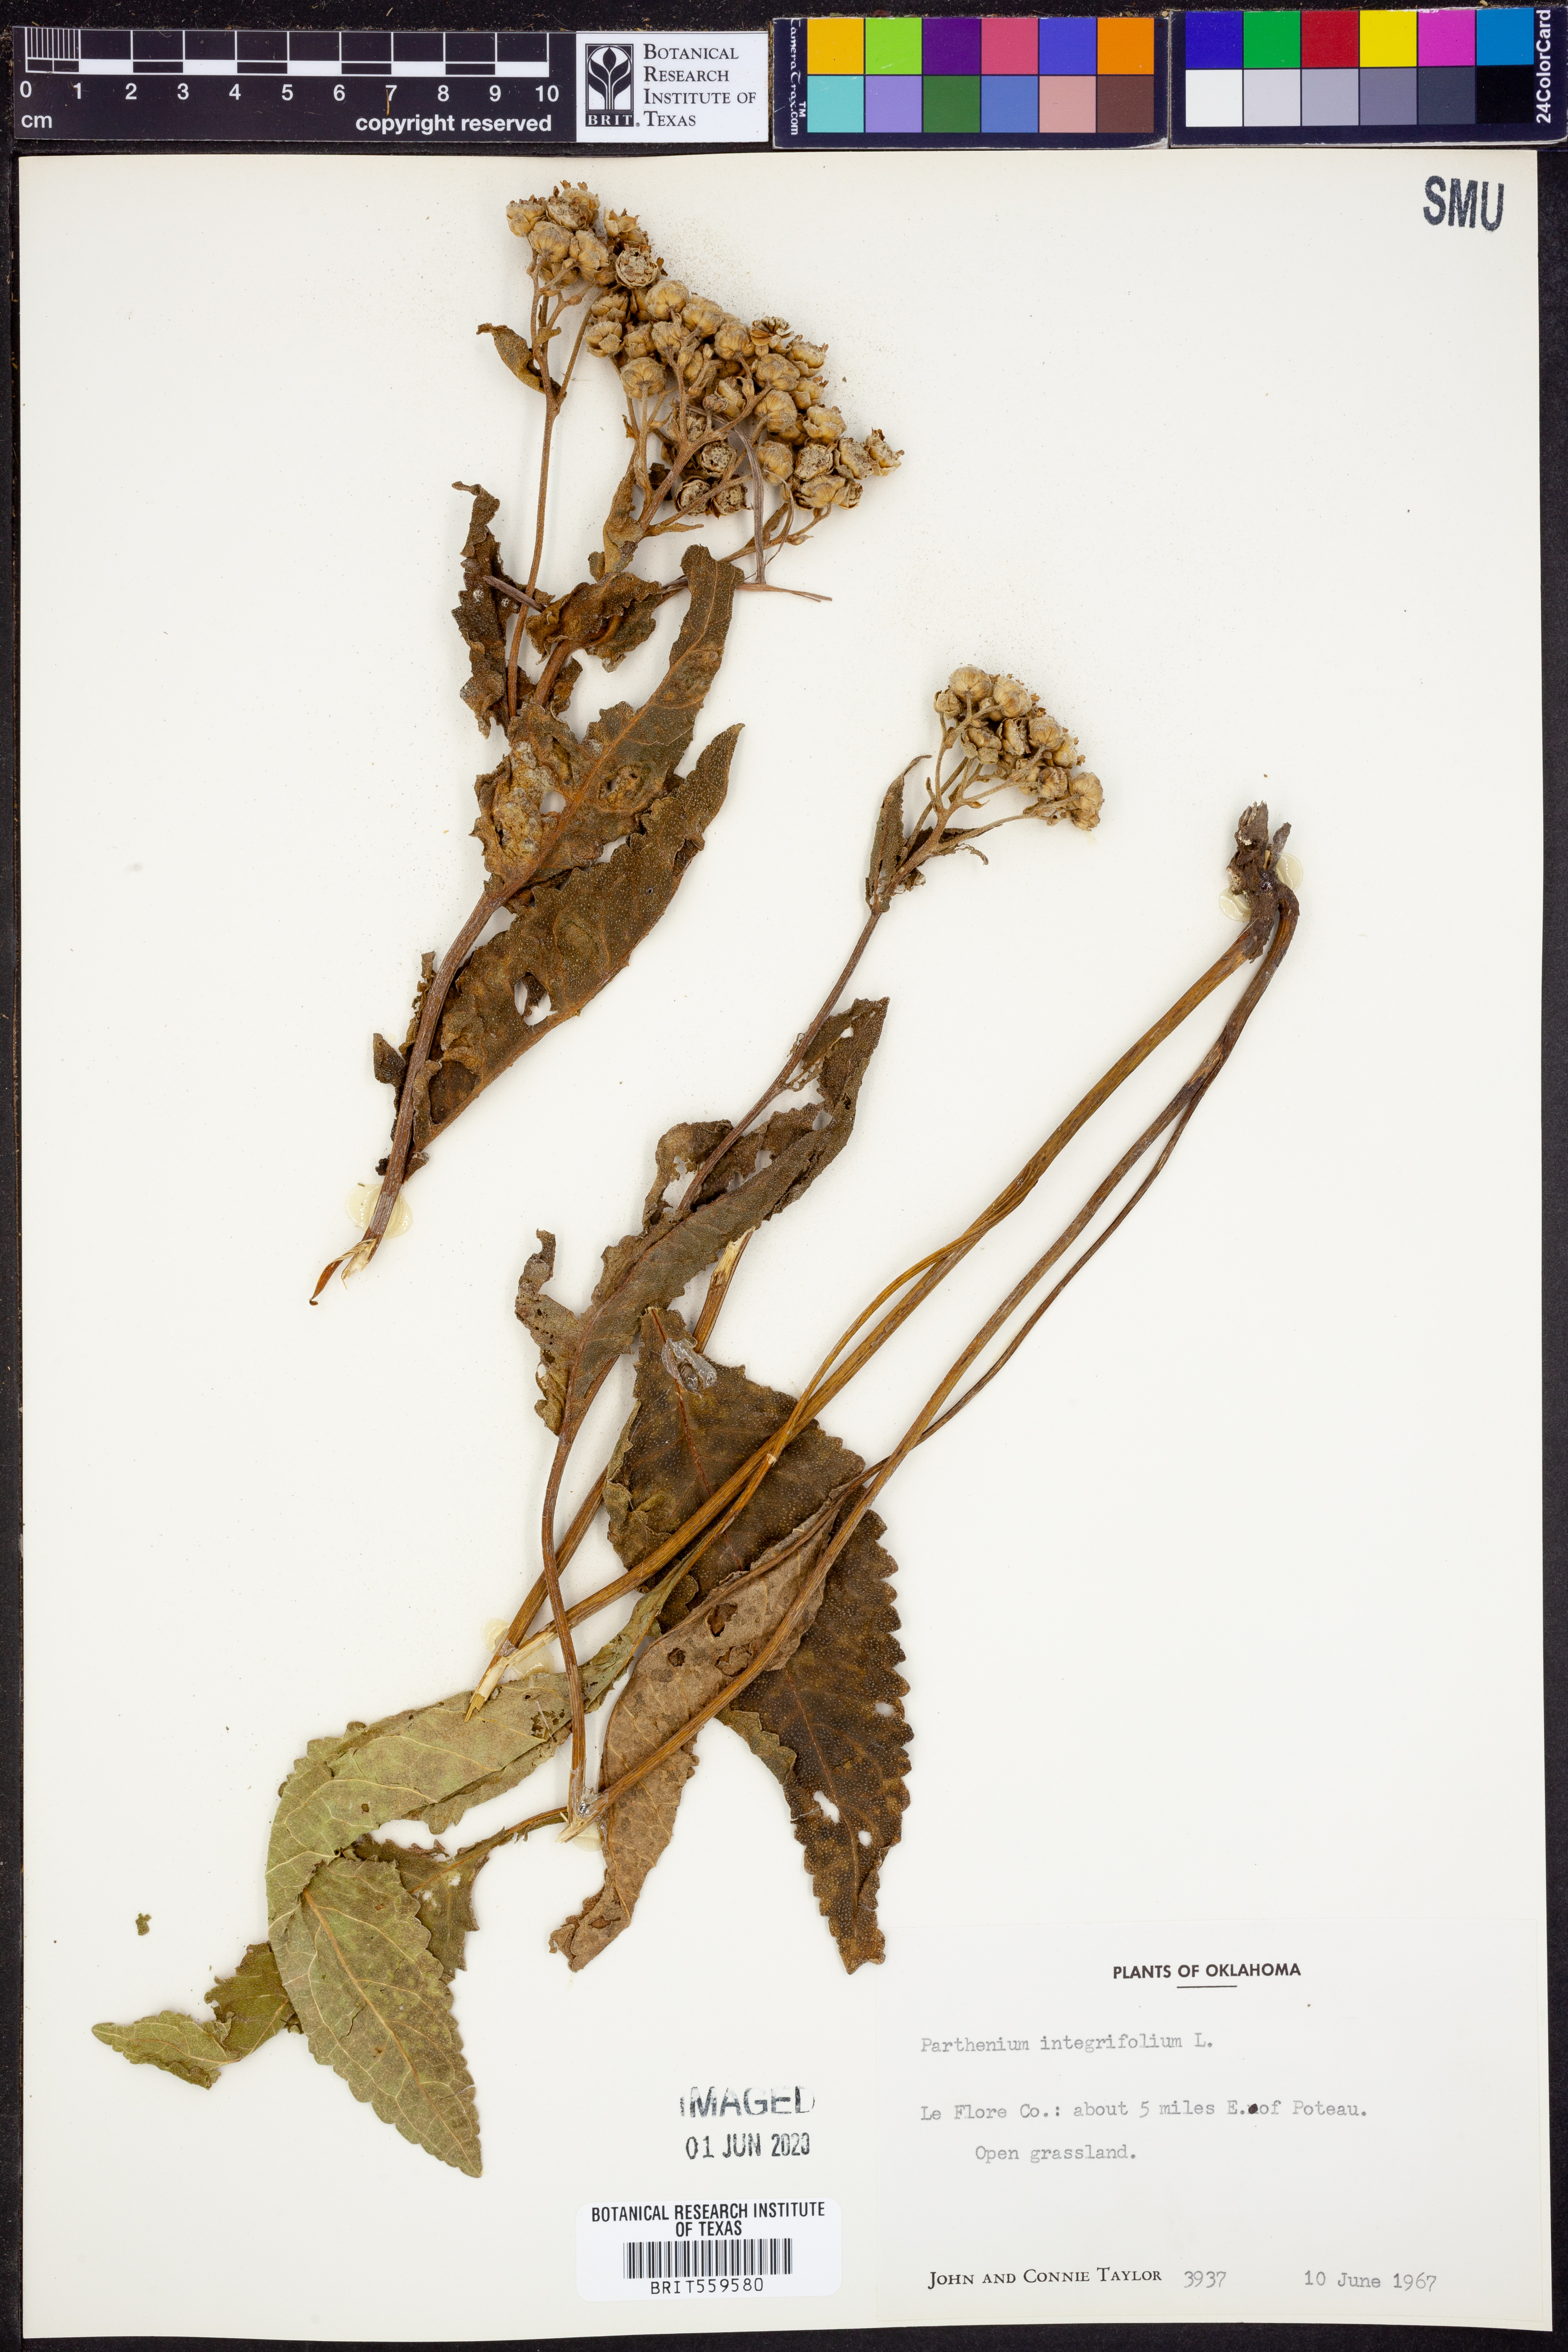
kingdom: Plantae
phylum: Tracheophyta
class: Magnoliopsida
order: Asterales
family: Asteraceae
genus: Parthenium
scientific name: Parthenium integrifolium
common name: American feverfew
